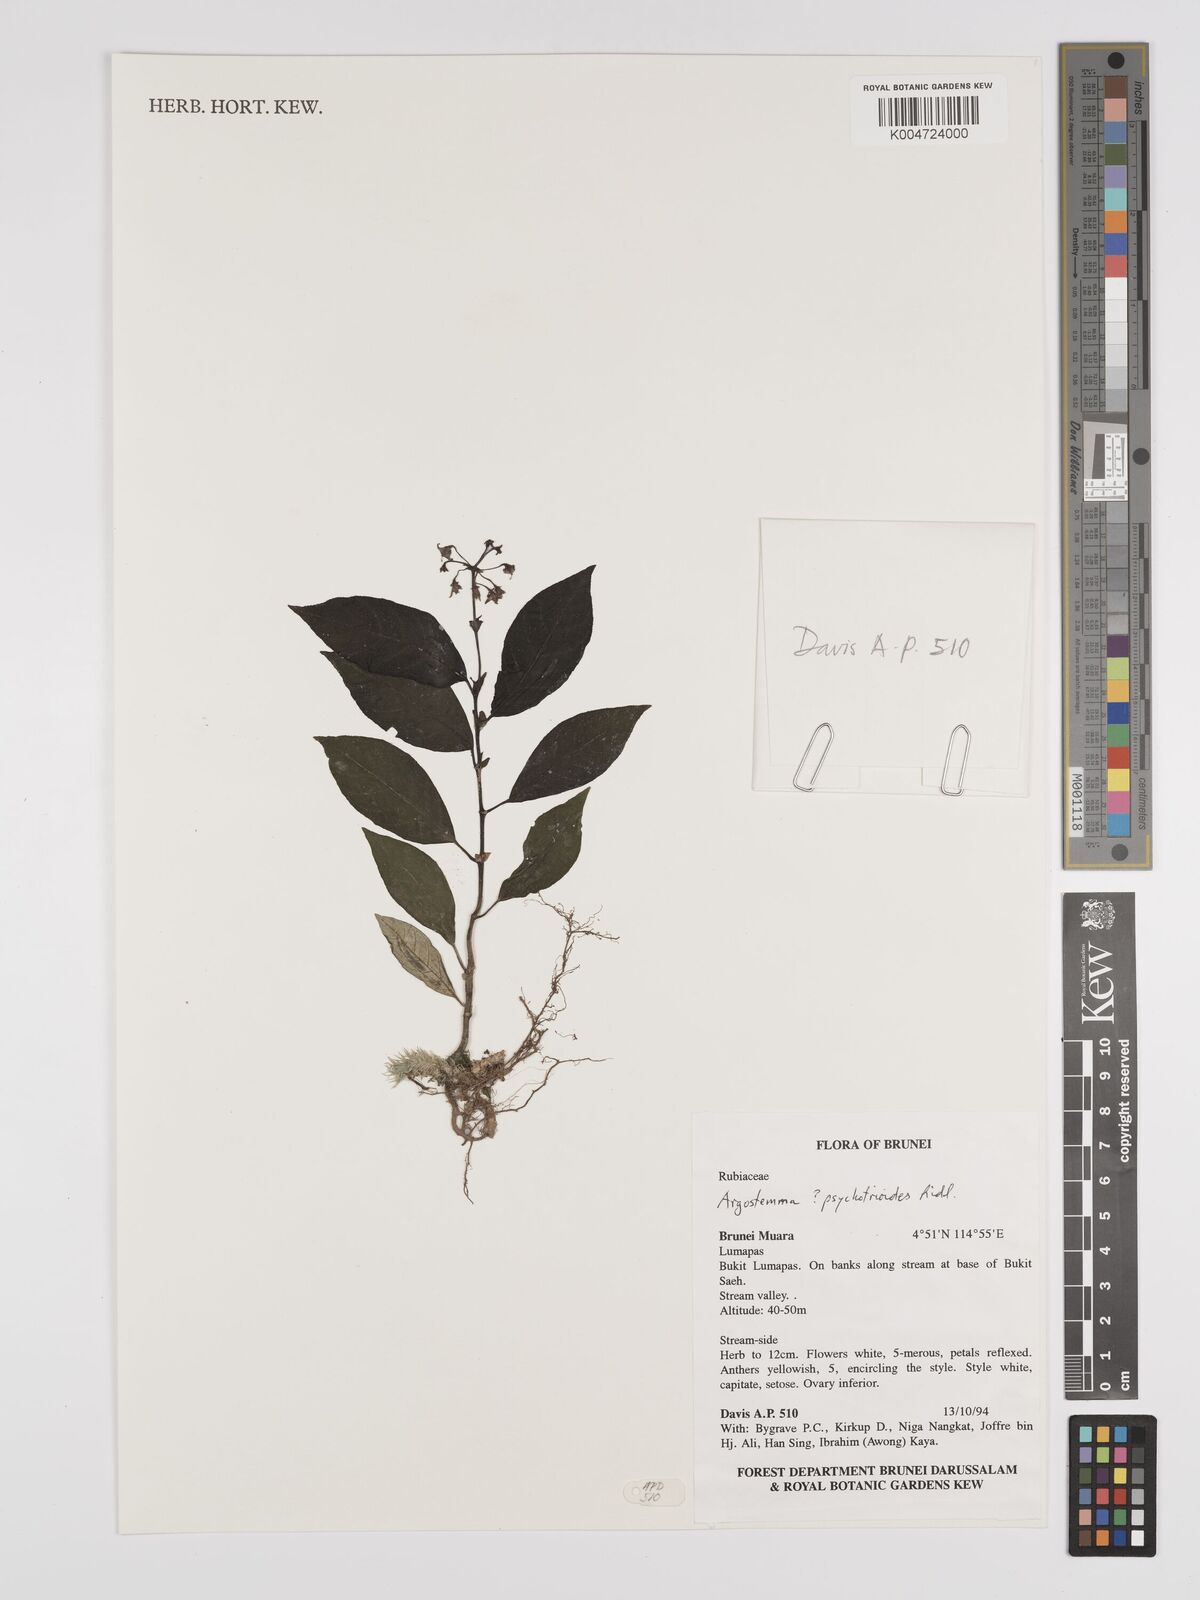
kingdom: Plantae
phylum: Tracheophyta
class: Magnoliopsida
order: Gentianales
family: Rubiaceae
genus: Argostemma
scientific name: Argostemma psychotrioides
